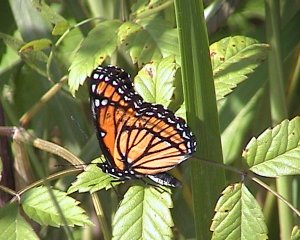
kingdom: Animalia
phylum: Arthropoda
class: Insecta
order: Lepidoptera
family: Nymphalidae
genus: Limenitis
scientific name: Limenitis archippus
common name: Viceroy
